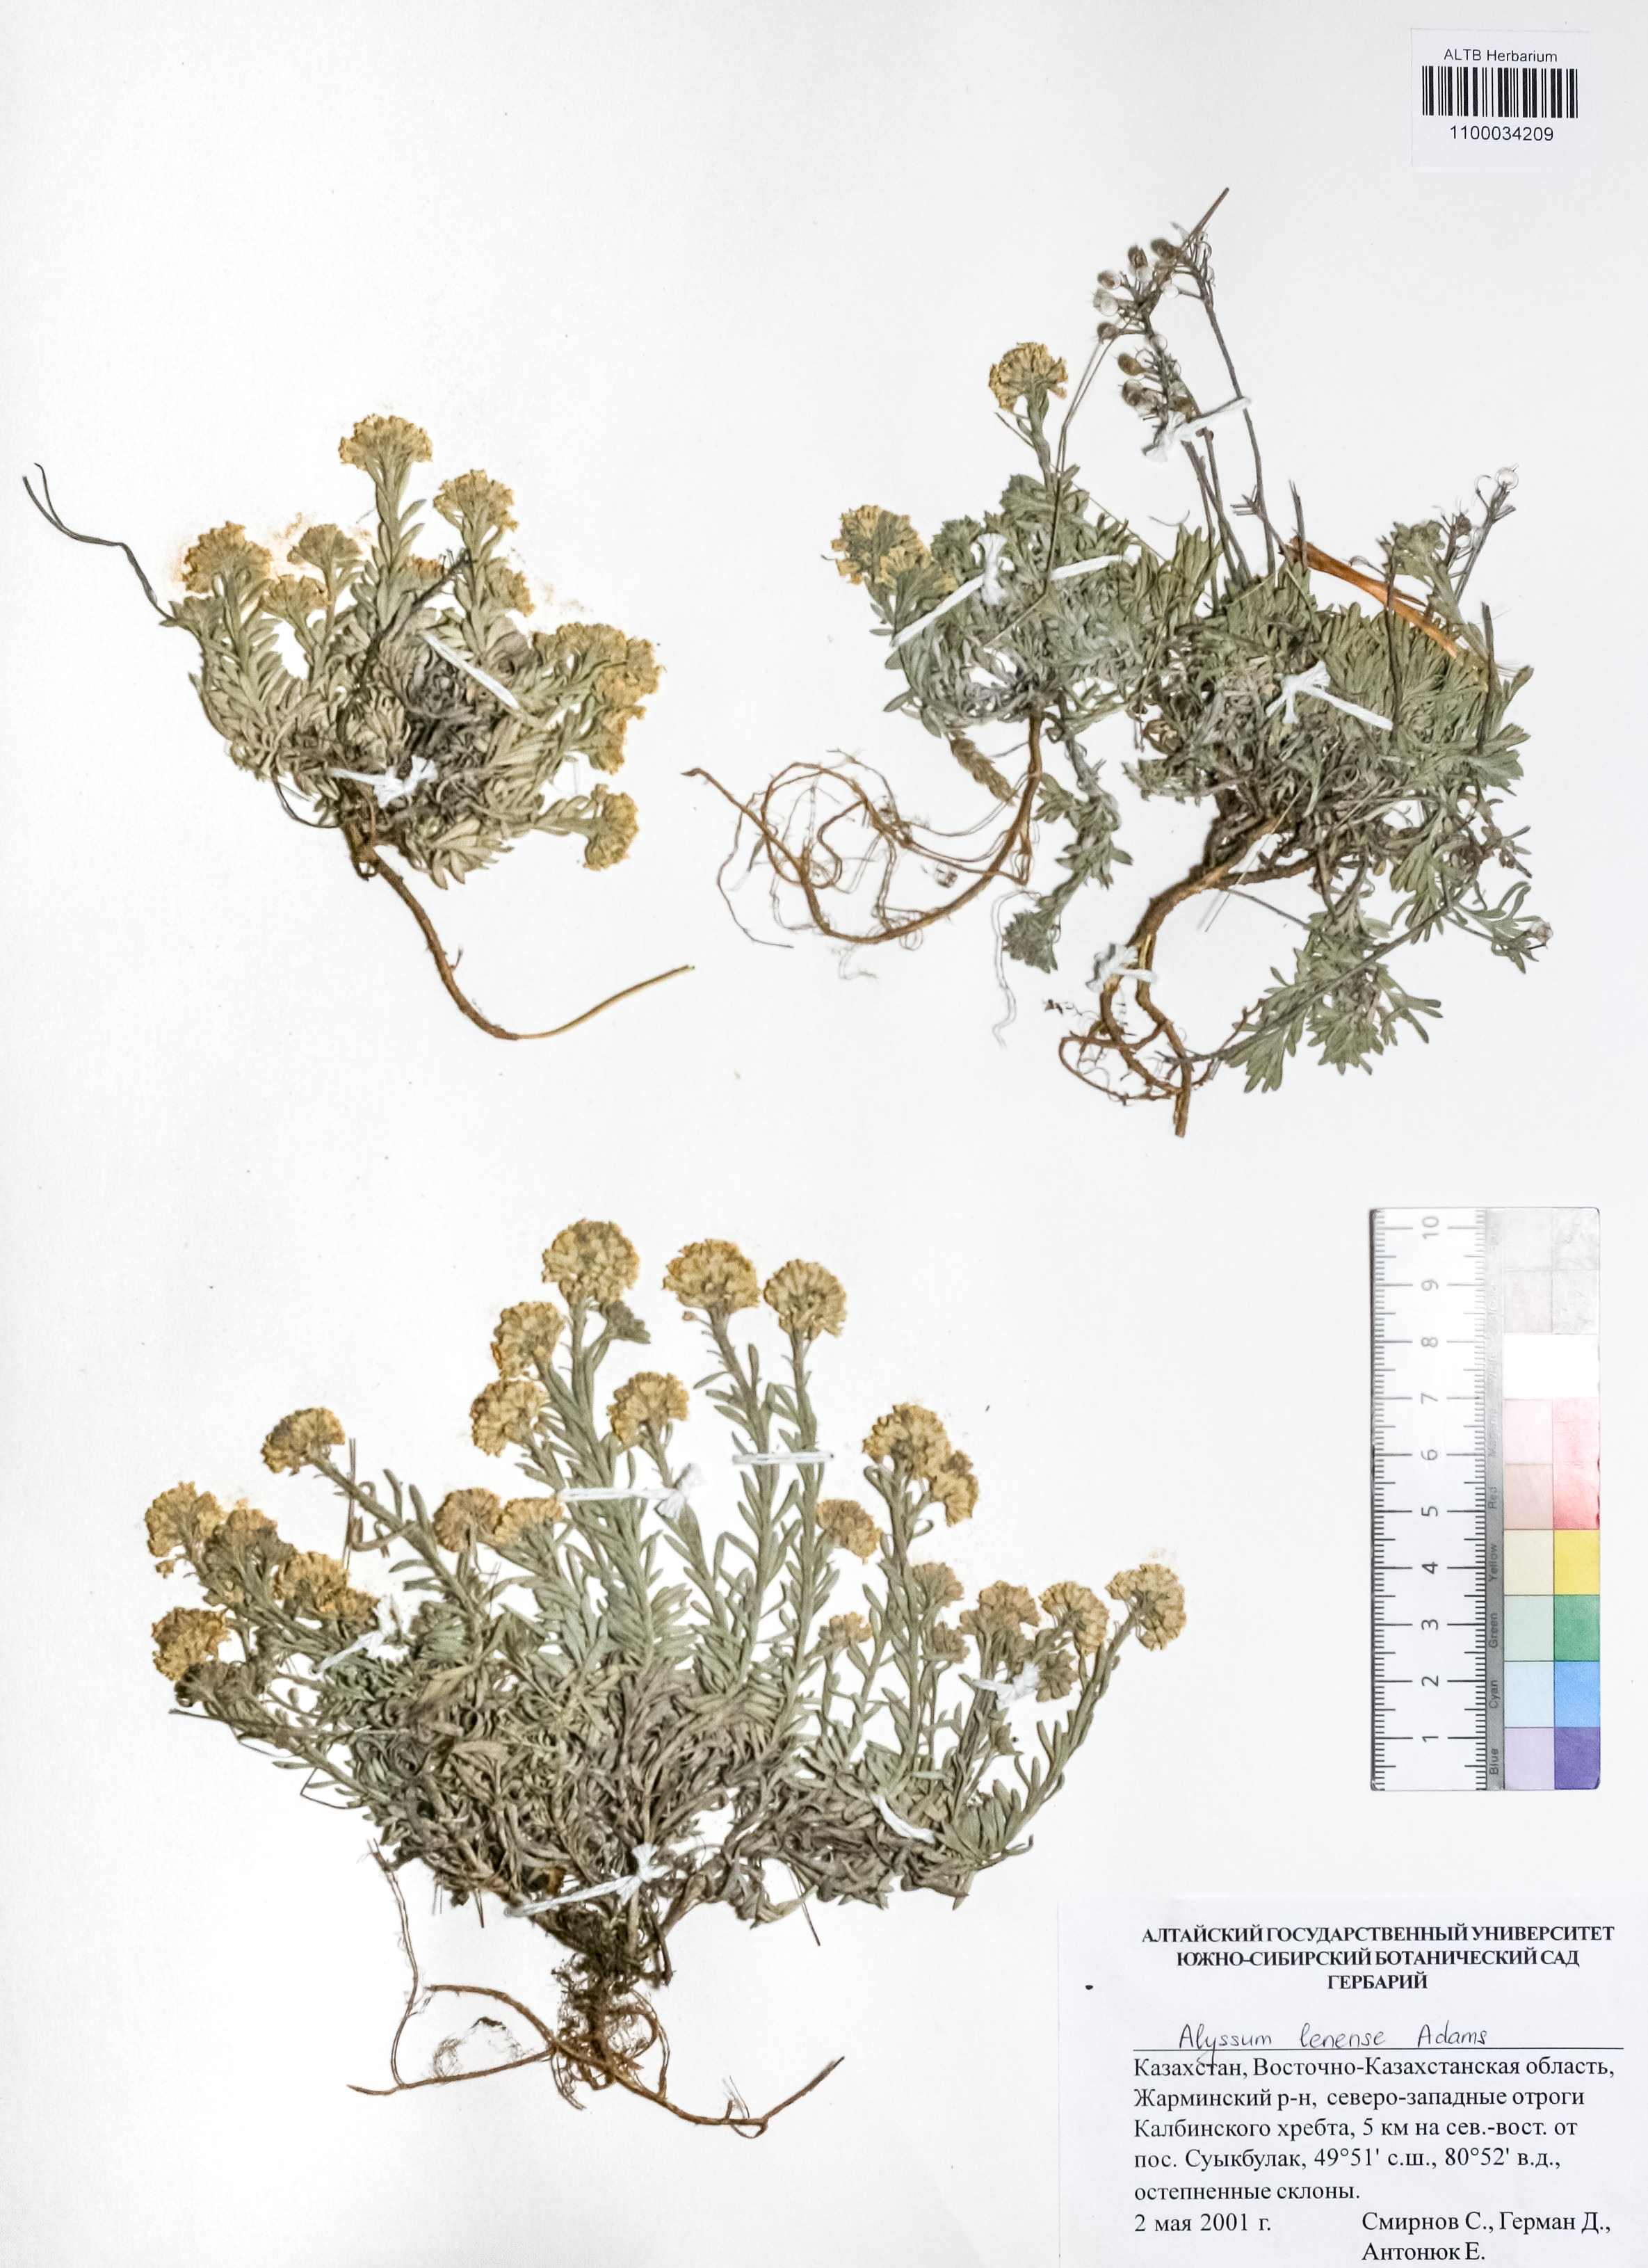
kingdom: Plantae
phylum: Tracheophyta
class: Magnoliopsida
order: Brassicales
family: Brassicaceae
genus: Alyssum
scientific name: Alyssum lenense
